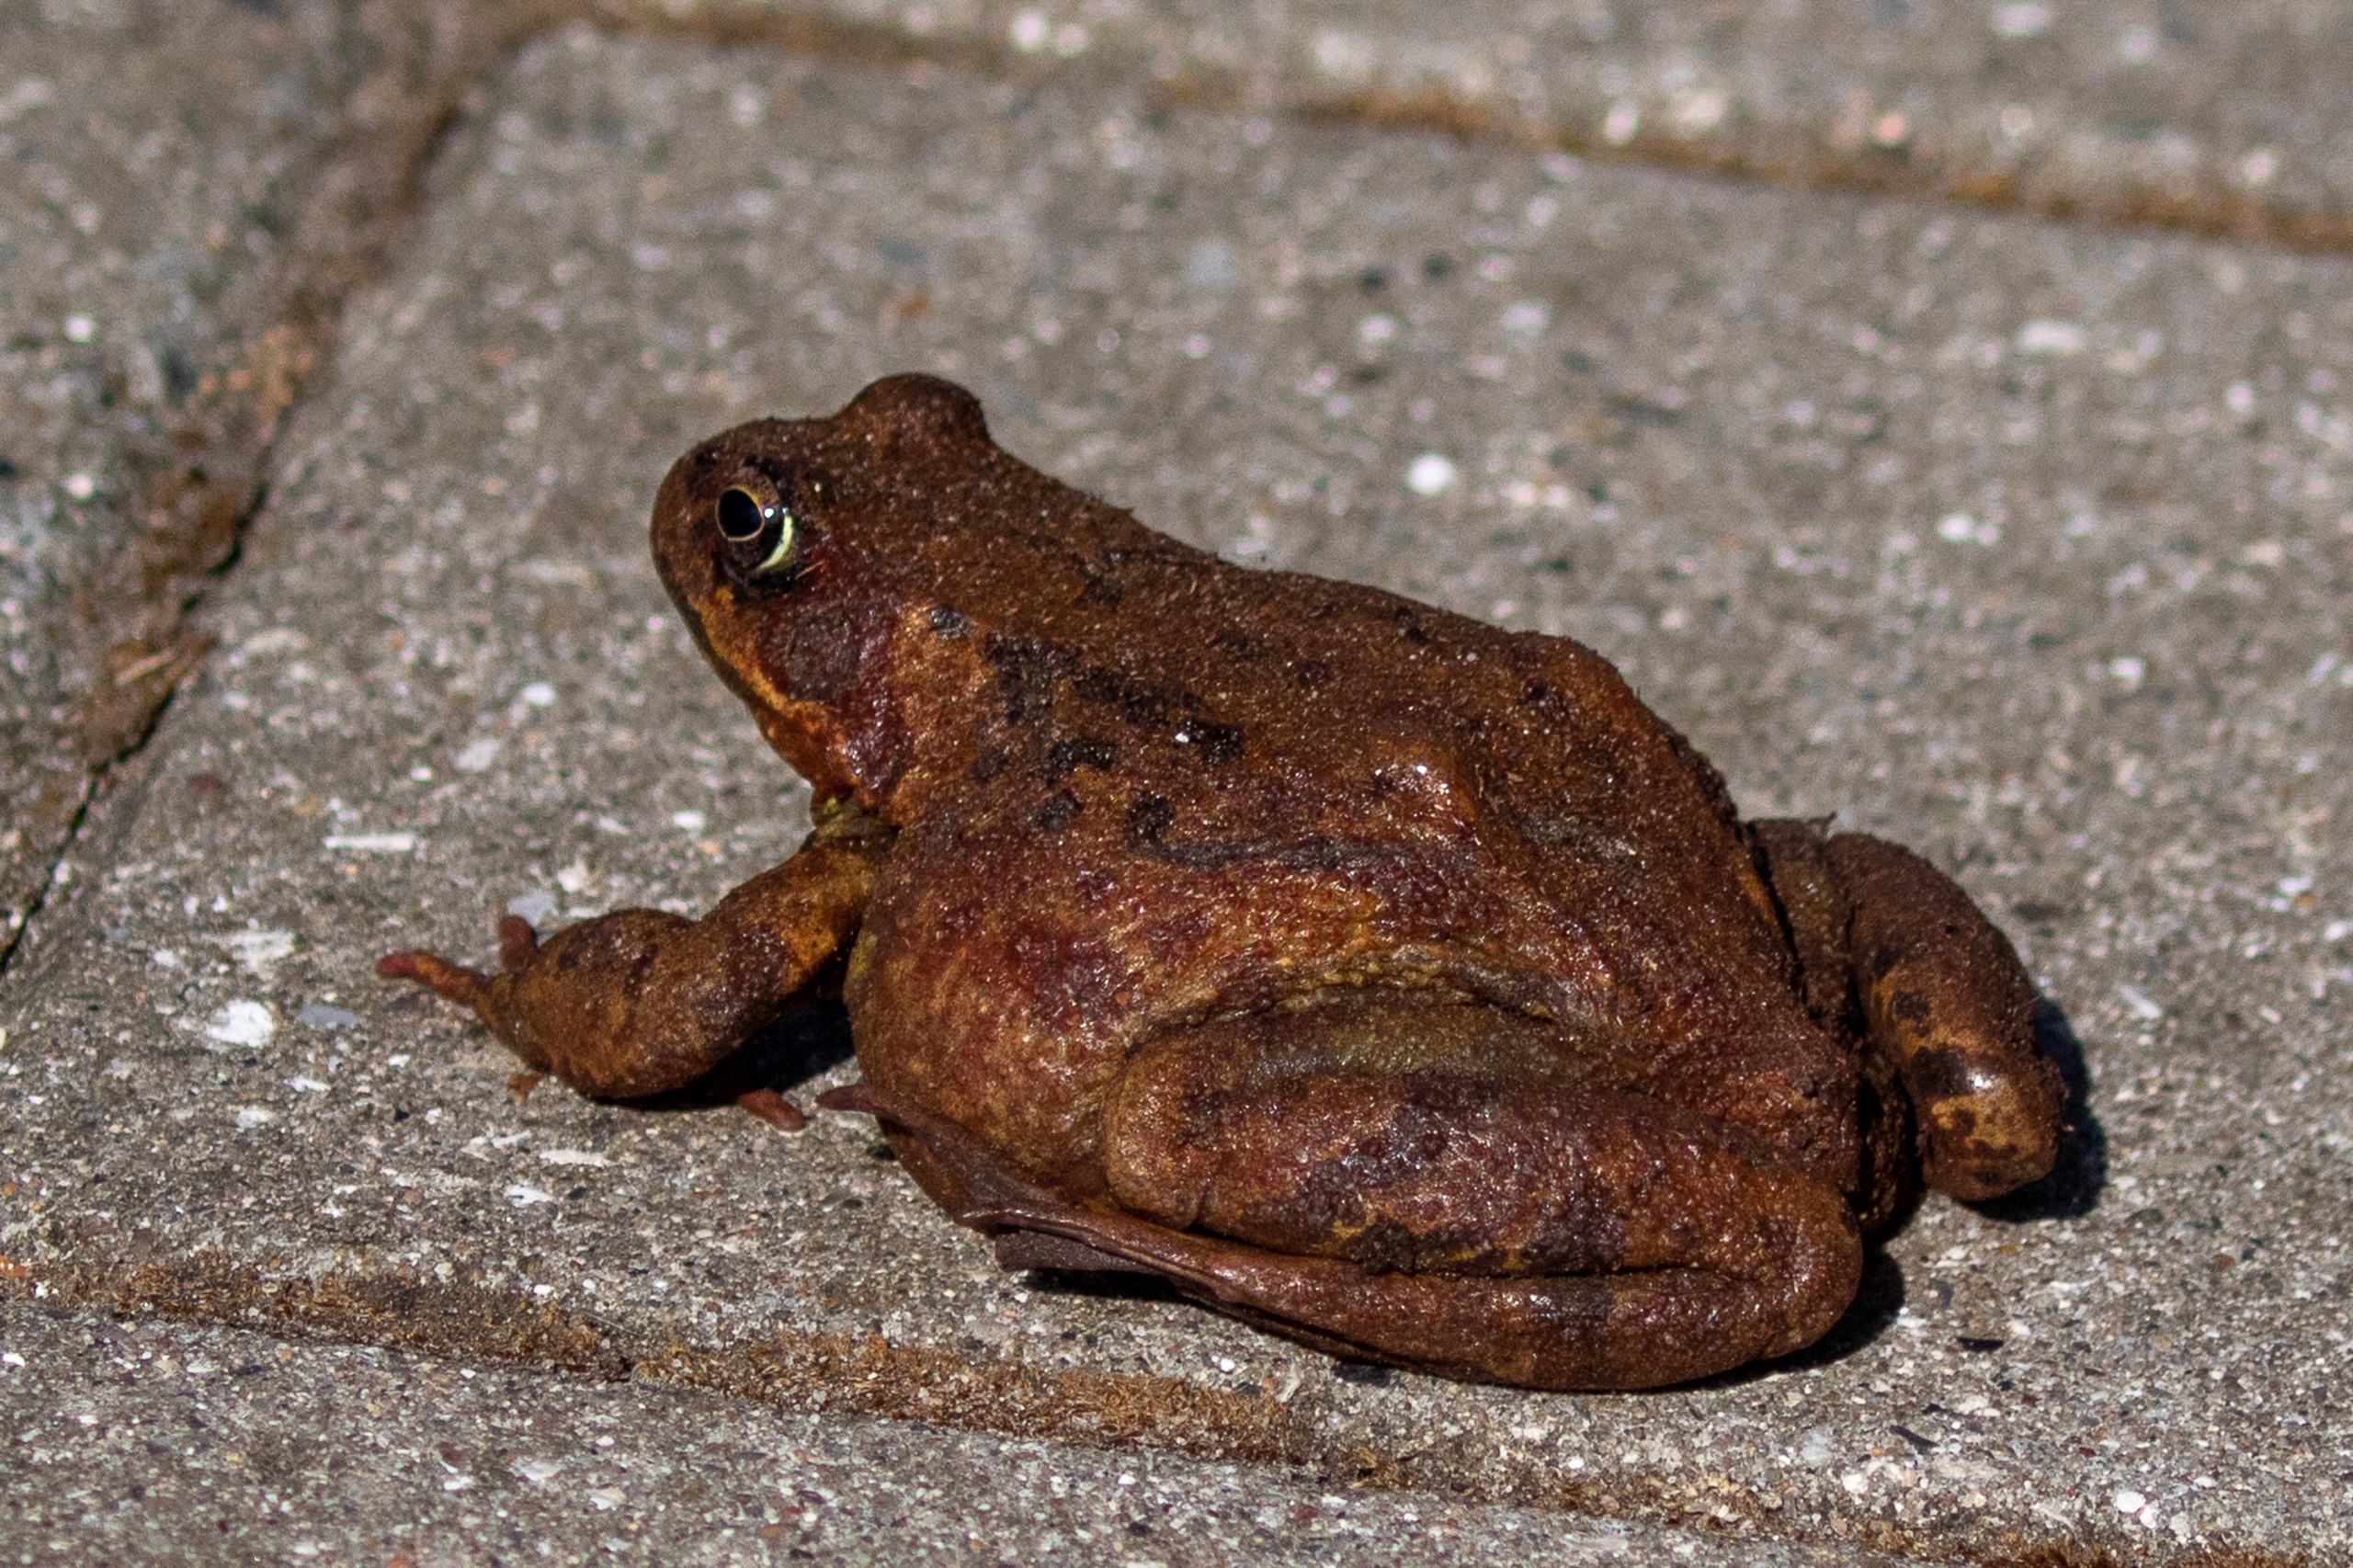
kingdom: Animalia
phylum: Chordata
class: Amphibia
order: Anura
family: Bufonidae
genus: Bufo
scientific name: Bufo bufo
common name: Skrubtudse
